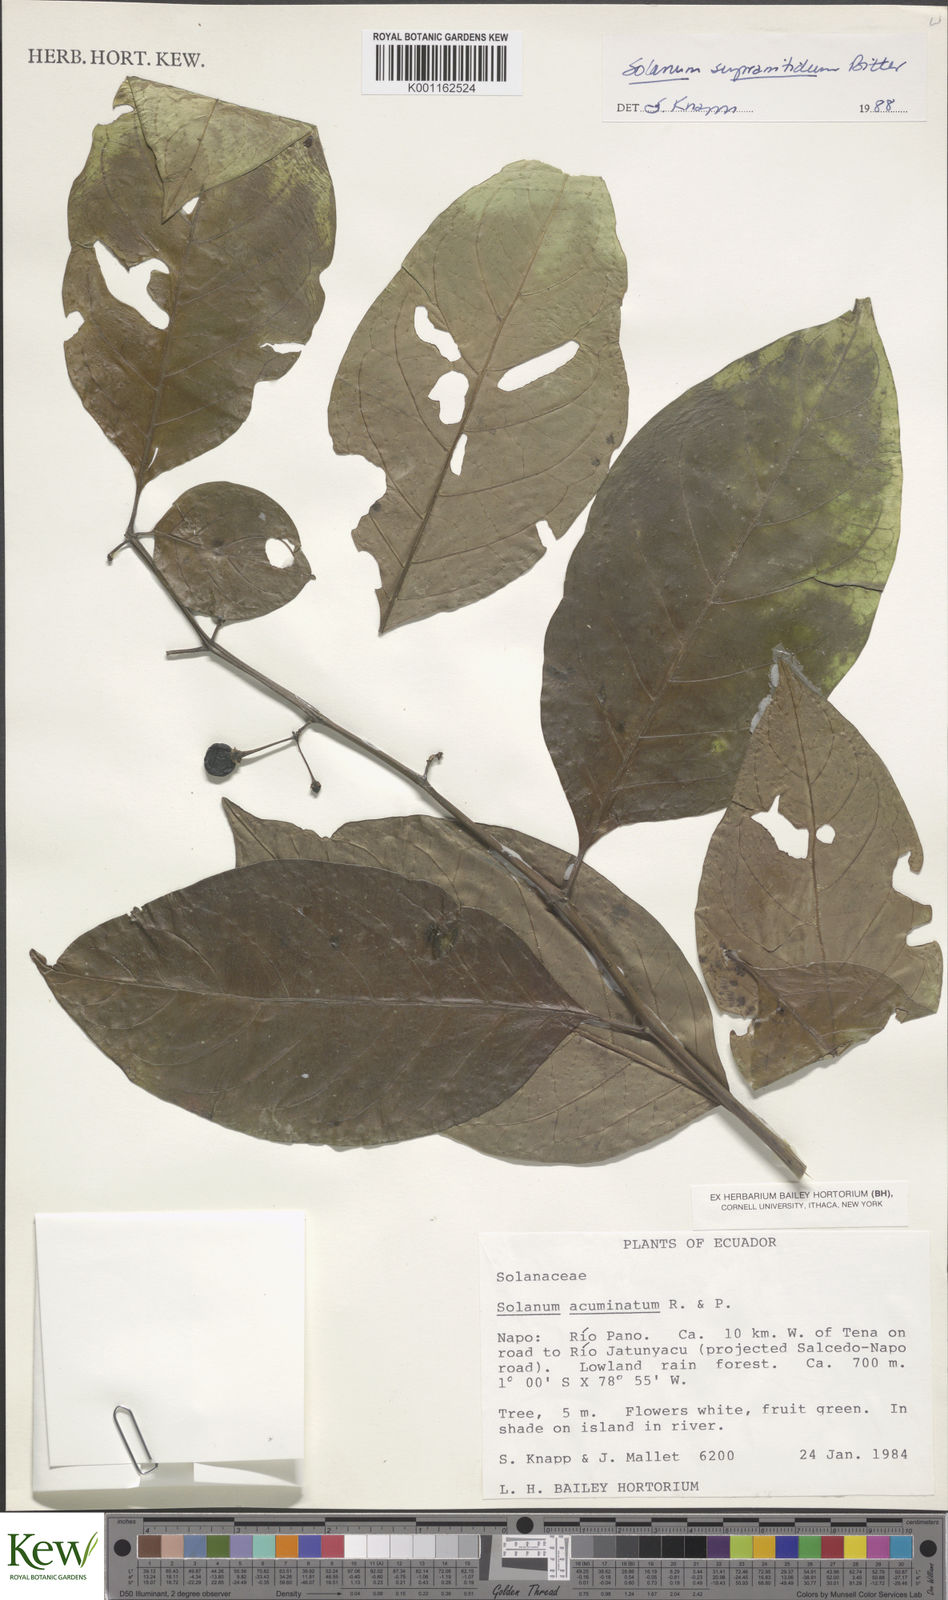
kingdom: Plantae
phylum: Tracheophyta
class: Magnoliopsida
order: Solanales
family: Solanaceae
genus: Solanum
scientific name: Solanum acuminatum
